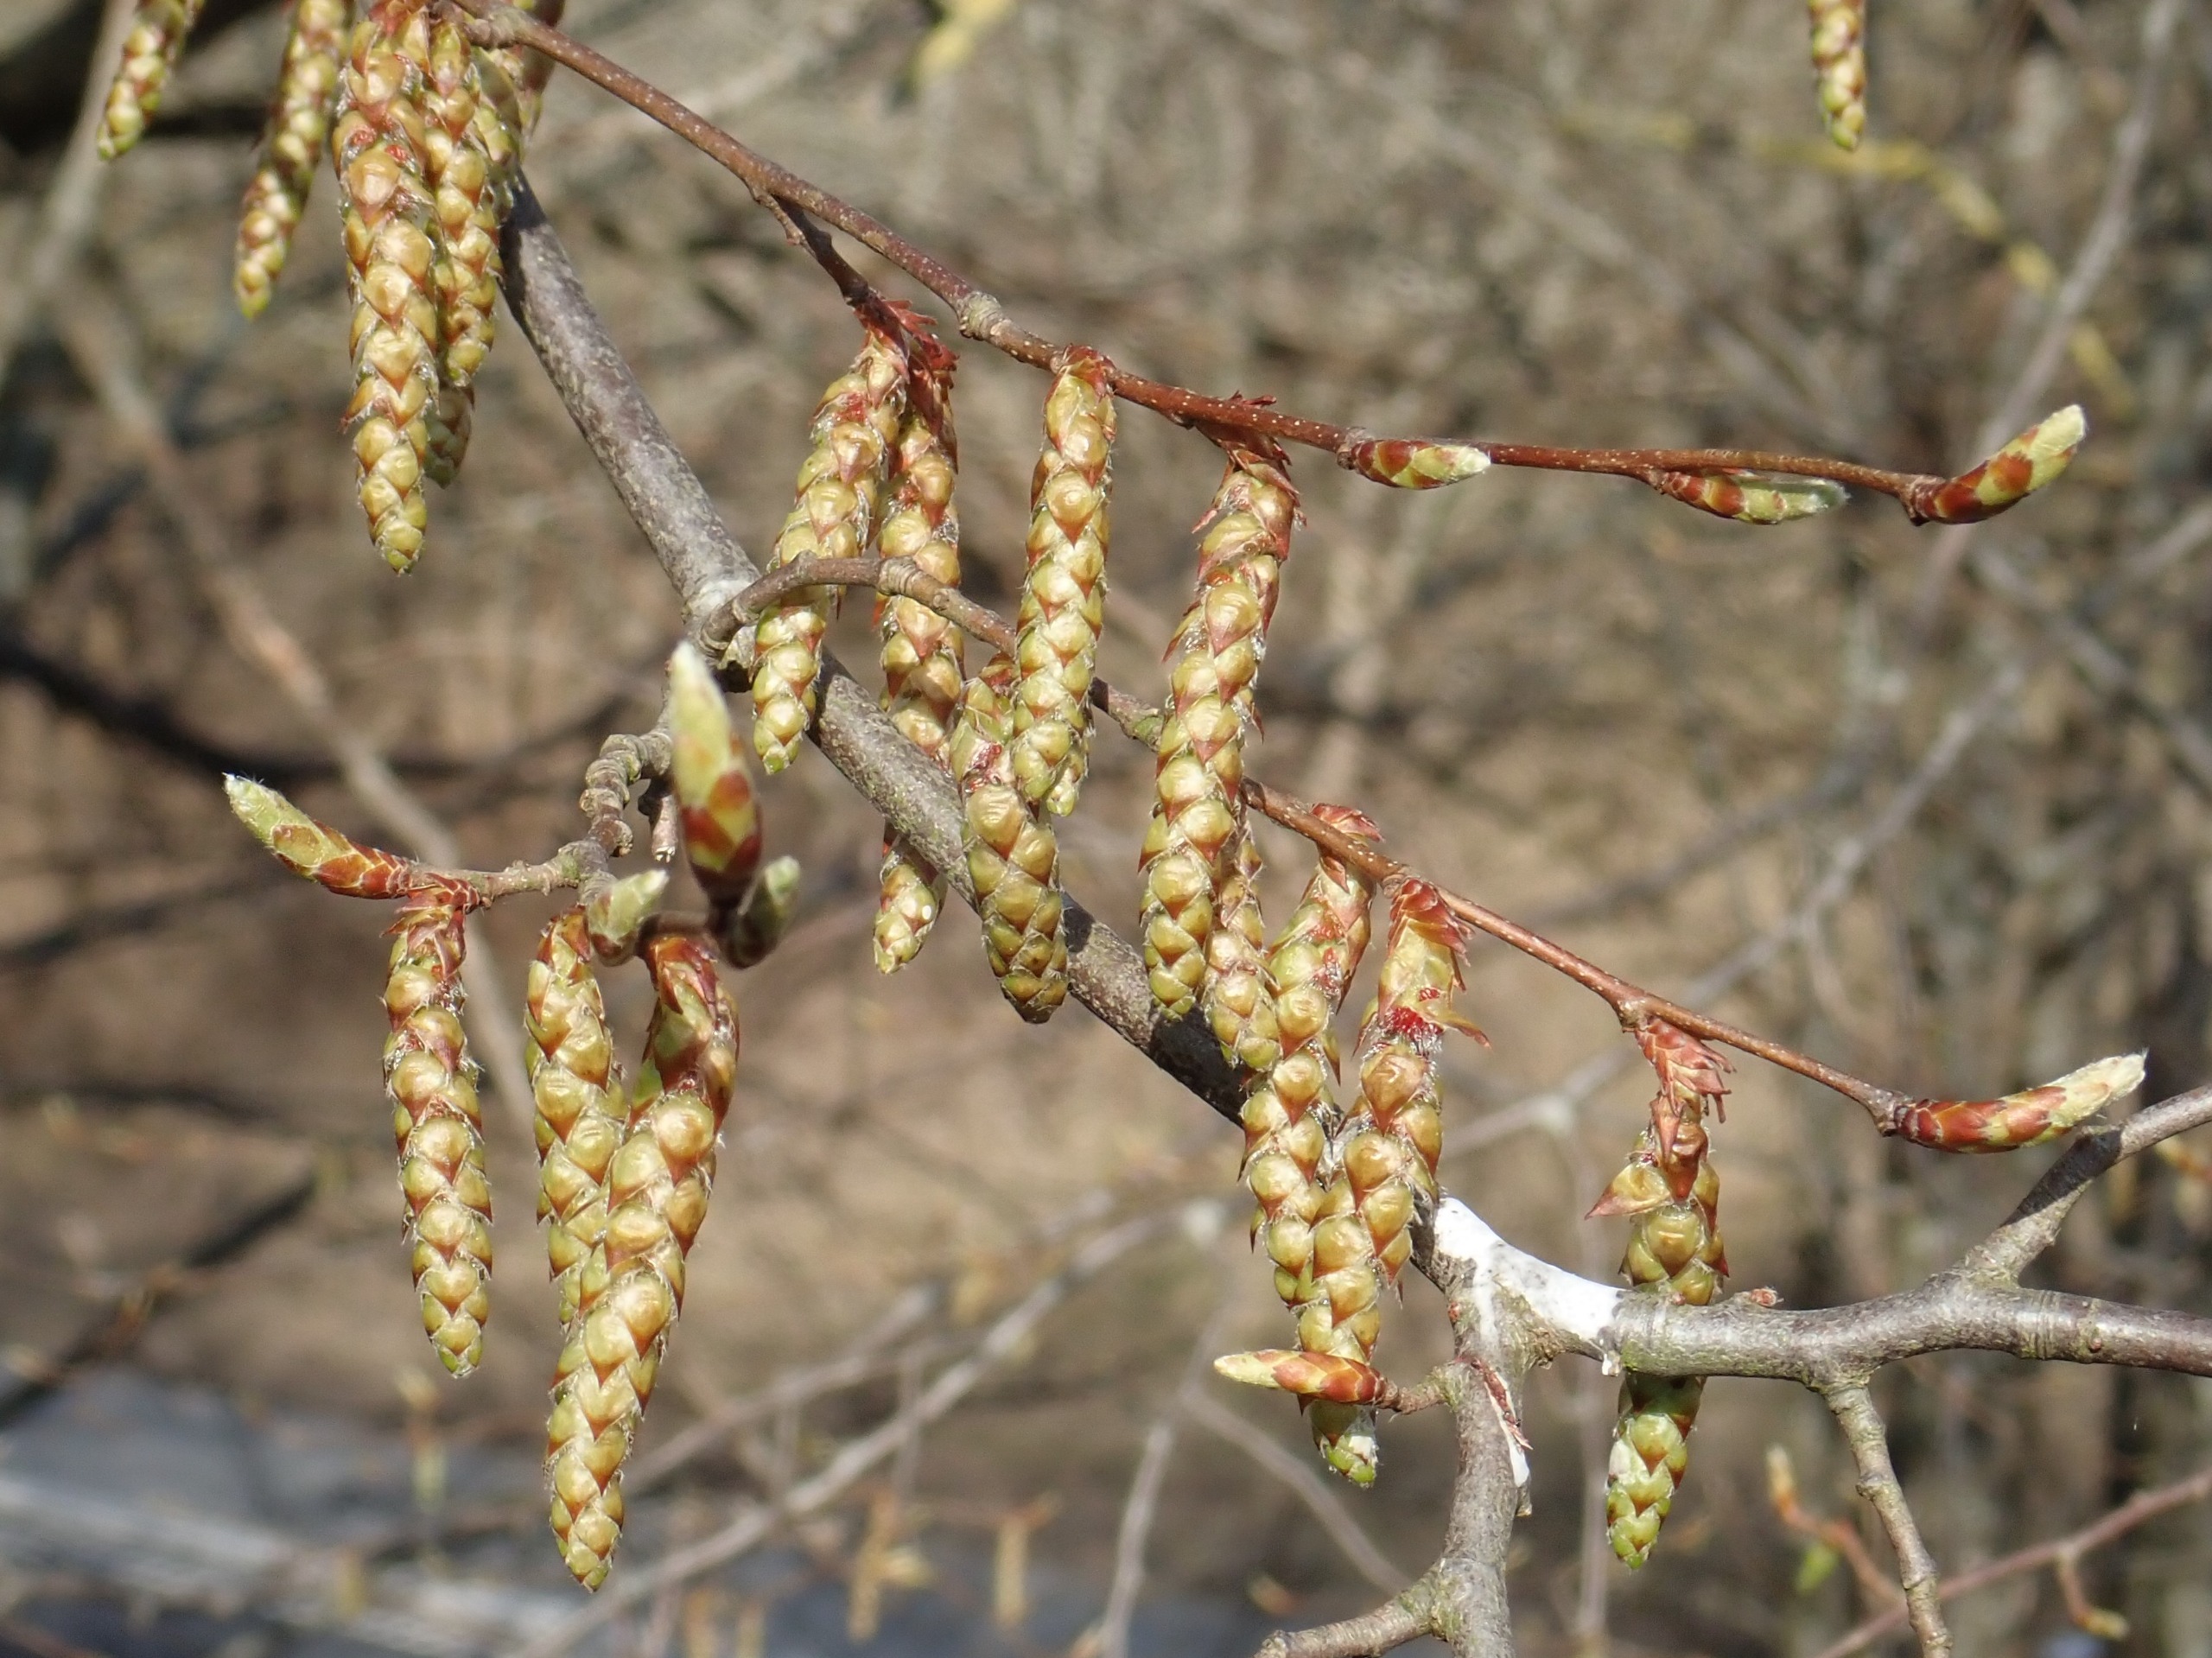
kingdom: Plantae
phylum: Tracheophyta
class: Magnoliopsida
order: Fagales
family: Betulaceae
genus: Carpinus
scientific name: Carpinus betulus
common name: Avnbøg
